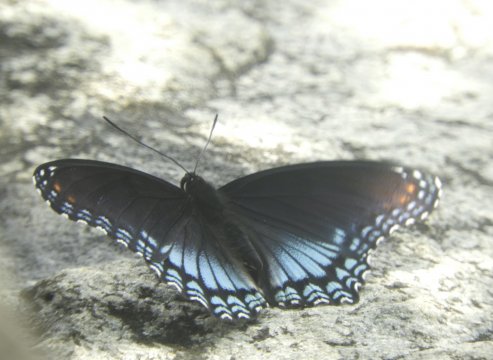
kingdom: Animalia
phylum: Arthropoda
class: Insecta
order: Lepidoptera
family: Nymphalidae
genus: Limenitis
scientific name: Limenitis arthemis
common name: Red-spotted Admiral
